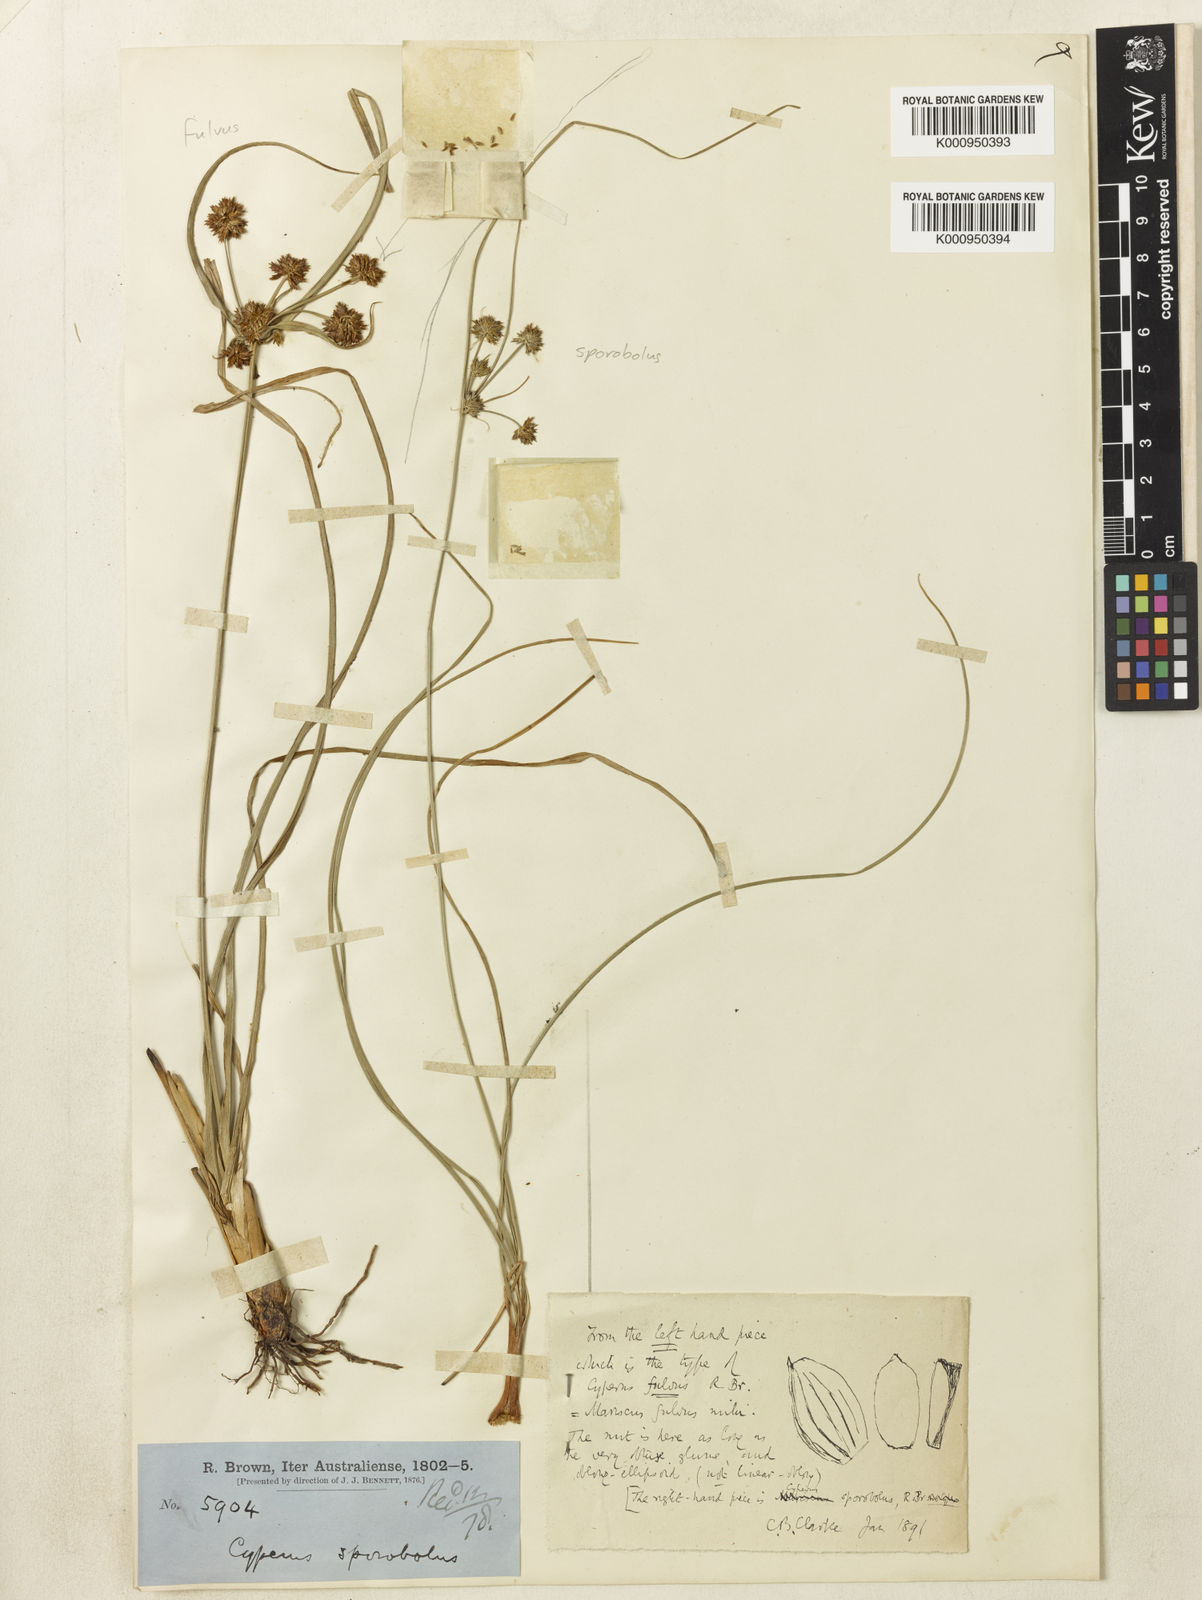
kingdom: Plantae
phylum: Tracheophyta
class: Liliopsida
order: Poales
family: Cyperaceae
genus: Cyperus
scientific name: Cyperus fulvus
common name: Sticky sedge
